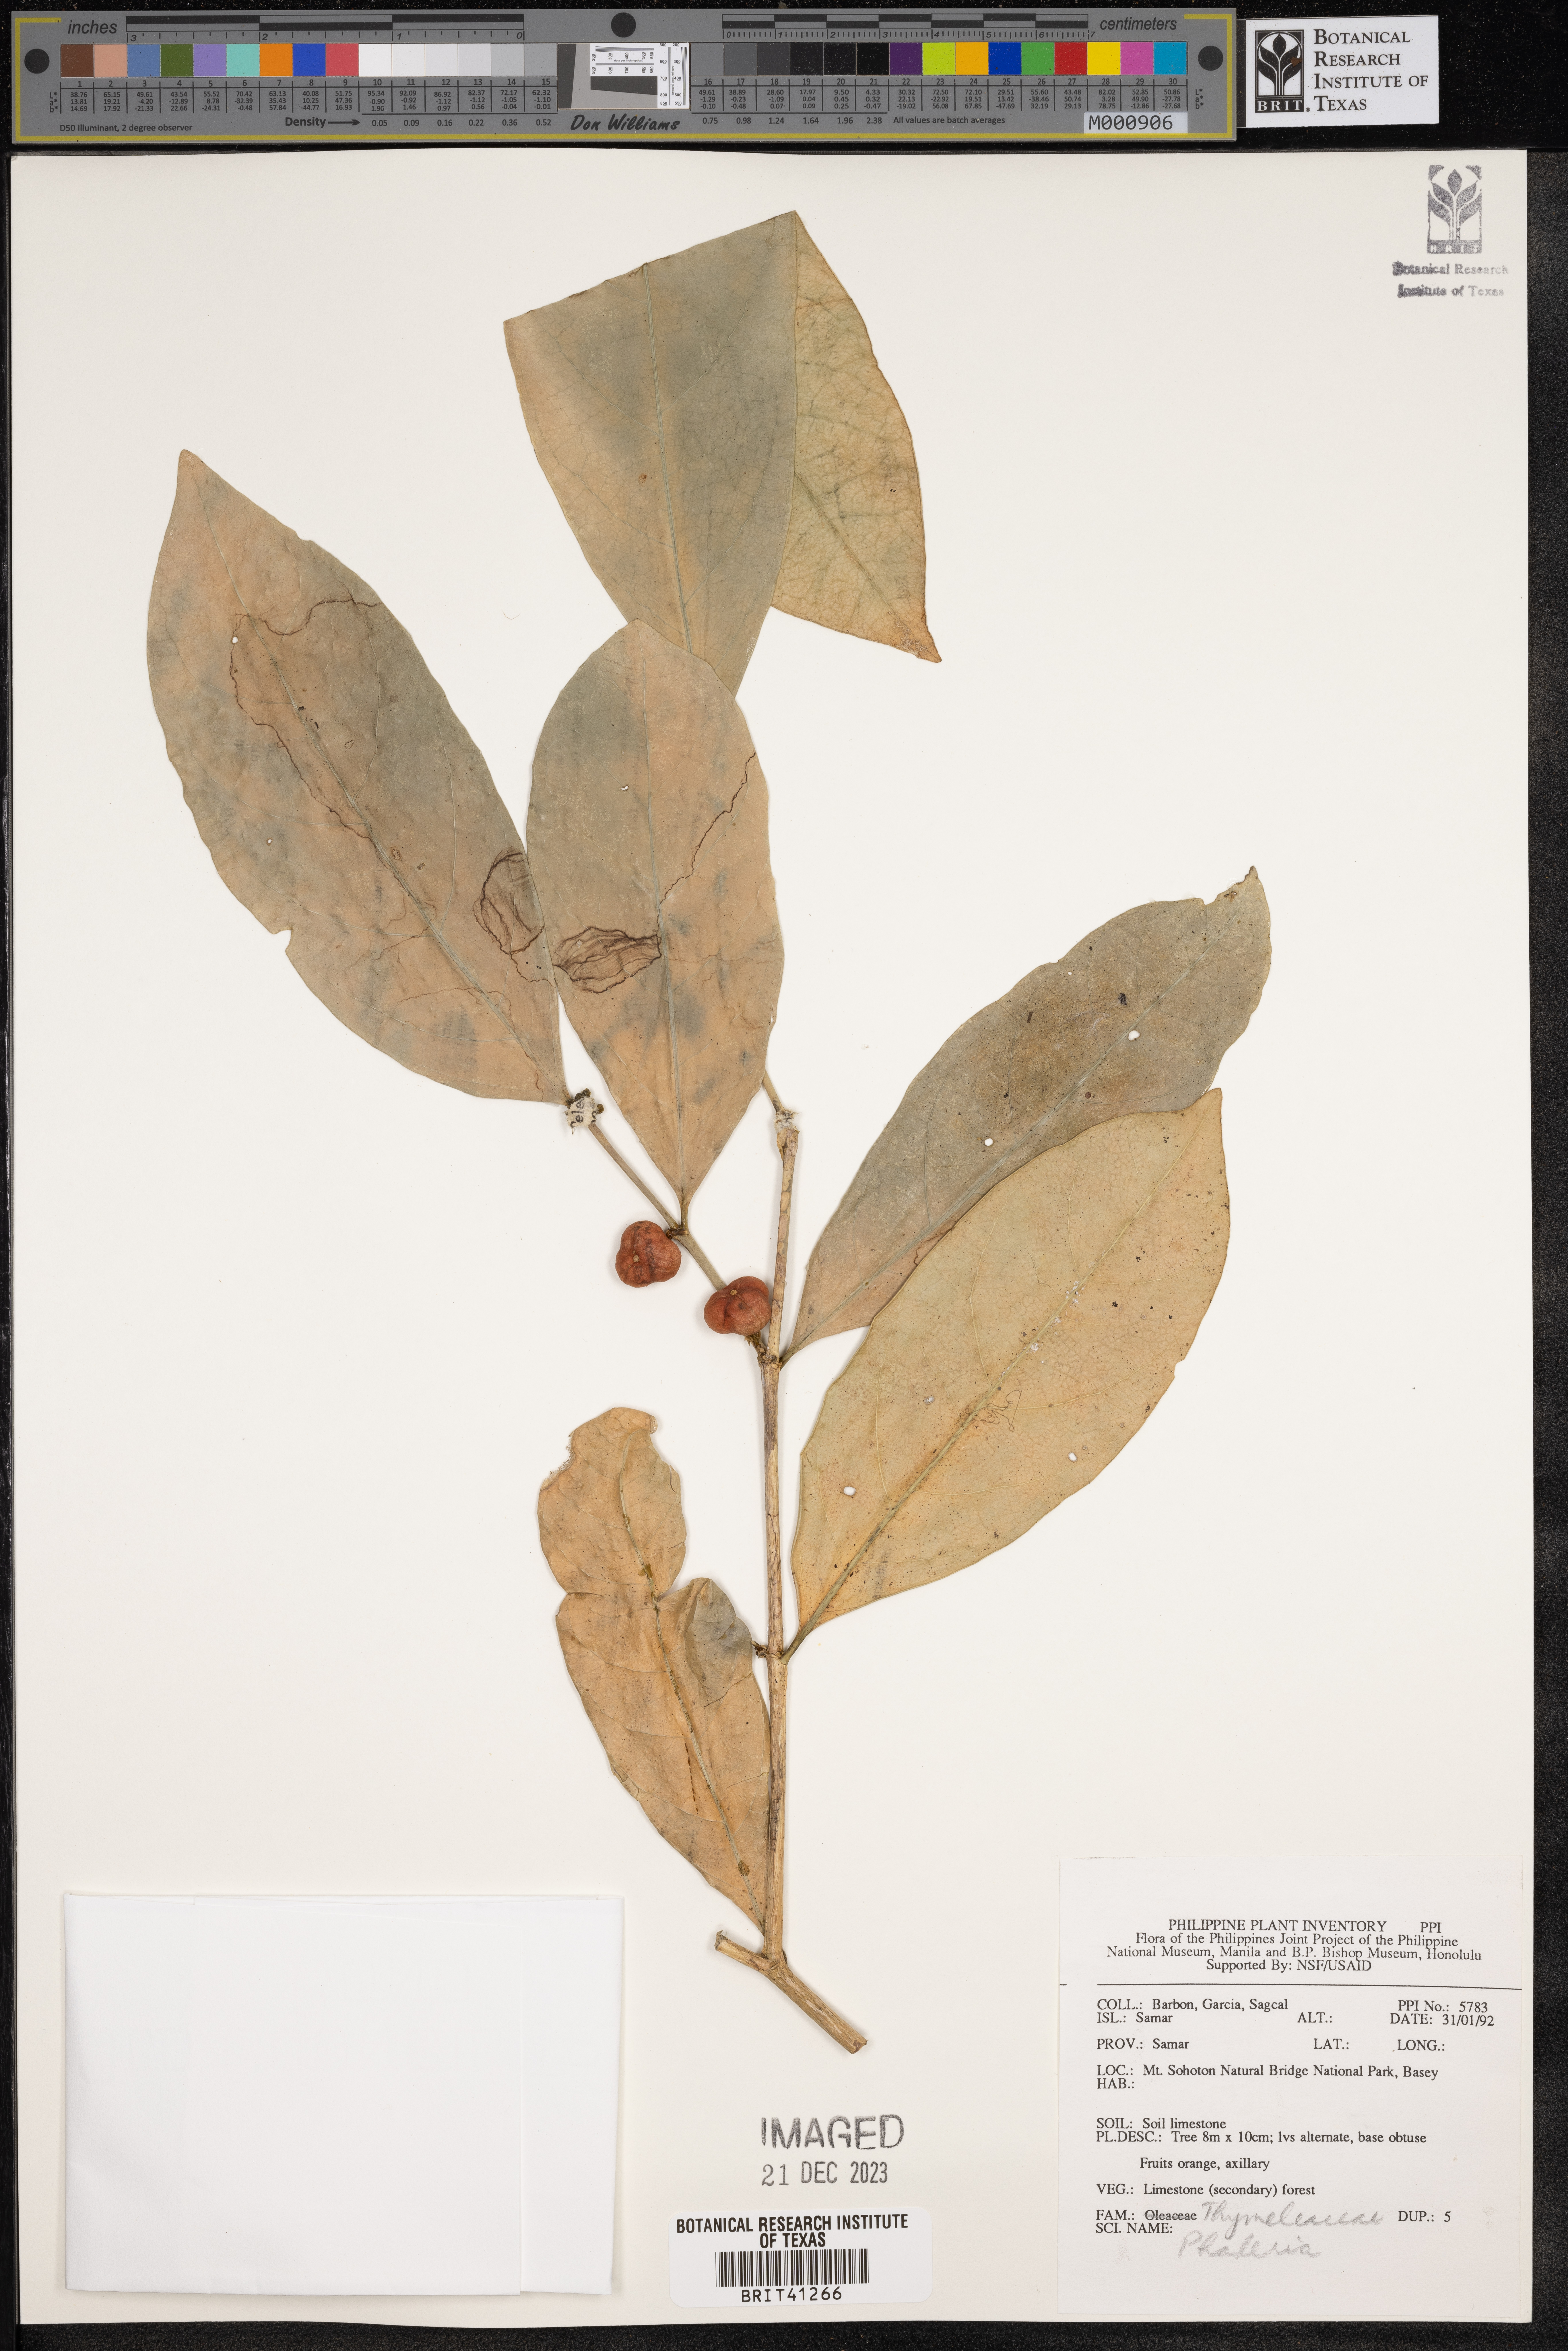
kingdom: Plantae
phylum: Tracheophyta
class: Magnoliopsida
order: Malvales
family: Thymelaeaceae
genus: Phaleria
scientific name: Phaleria
